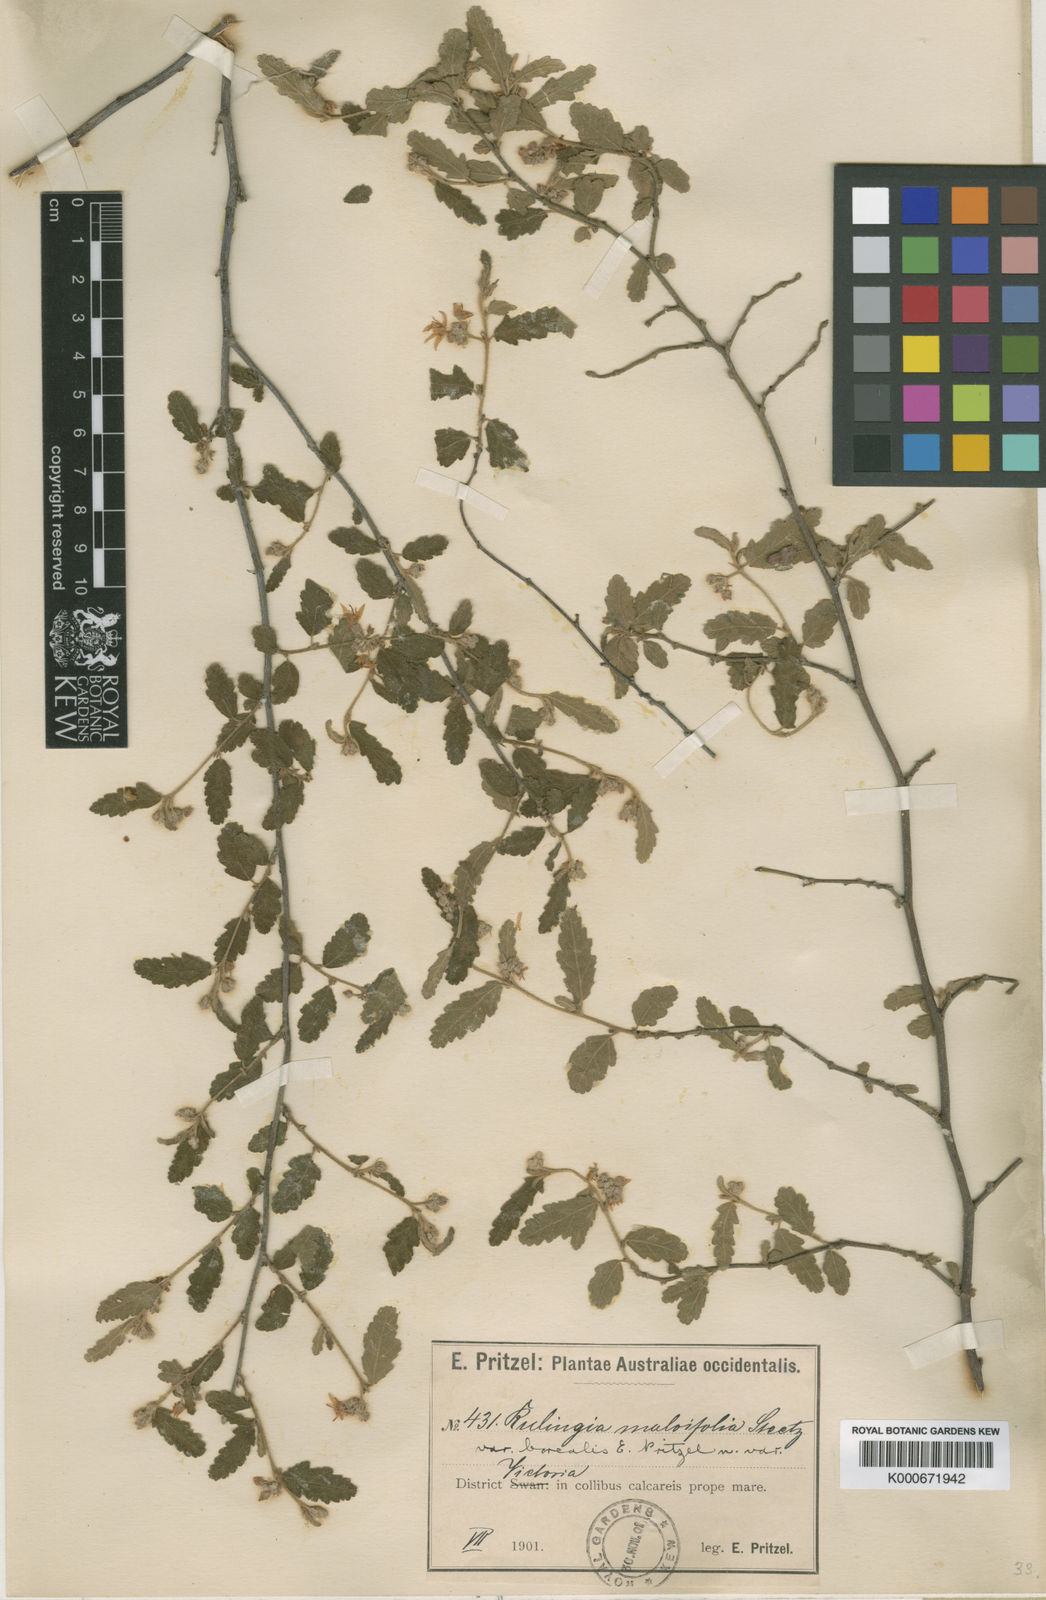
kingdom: Plantae
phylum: Tracheophyta
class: Magnoliopsida
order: Malvales
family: Malvaceae
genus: Commersonia
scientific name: Commersonia borealis
